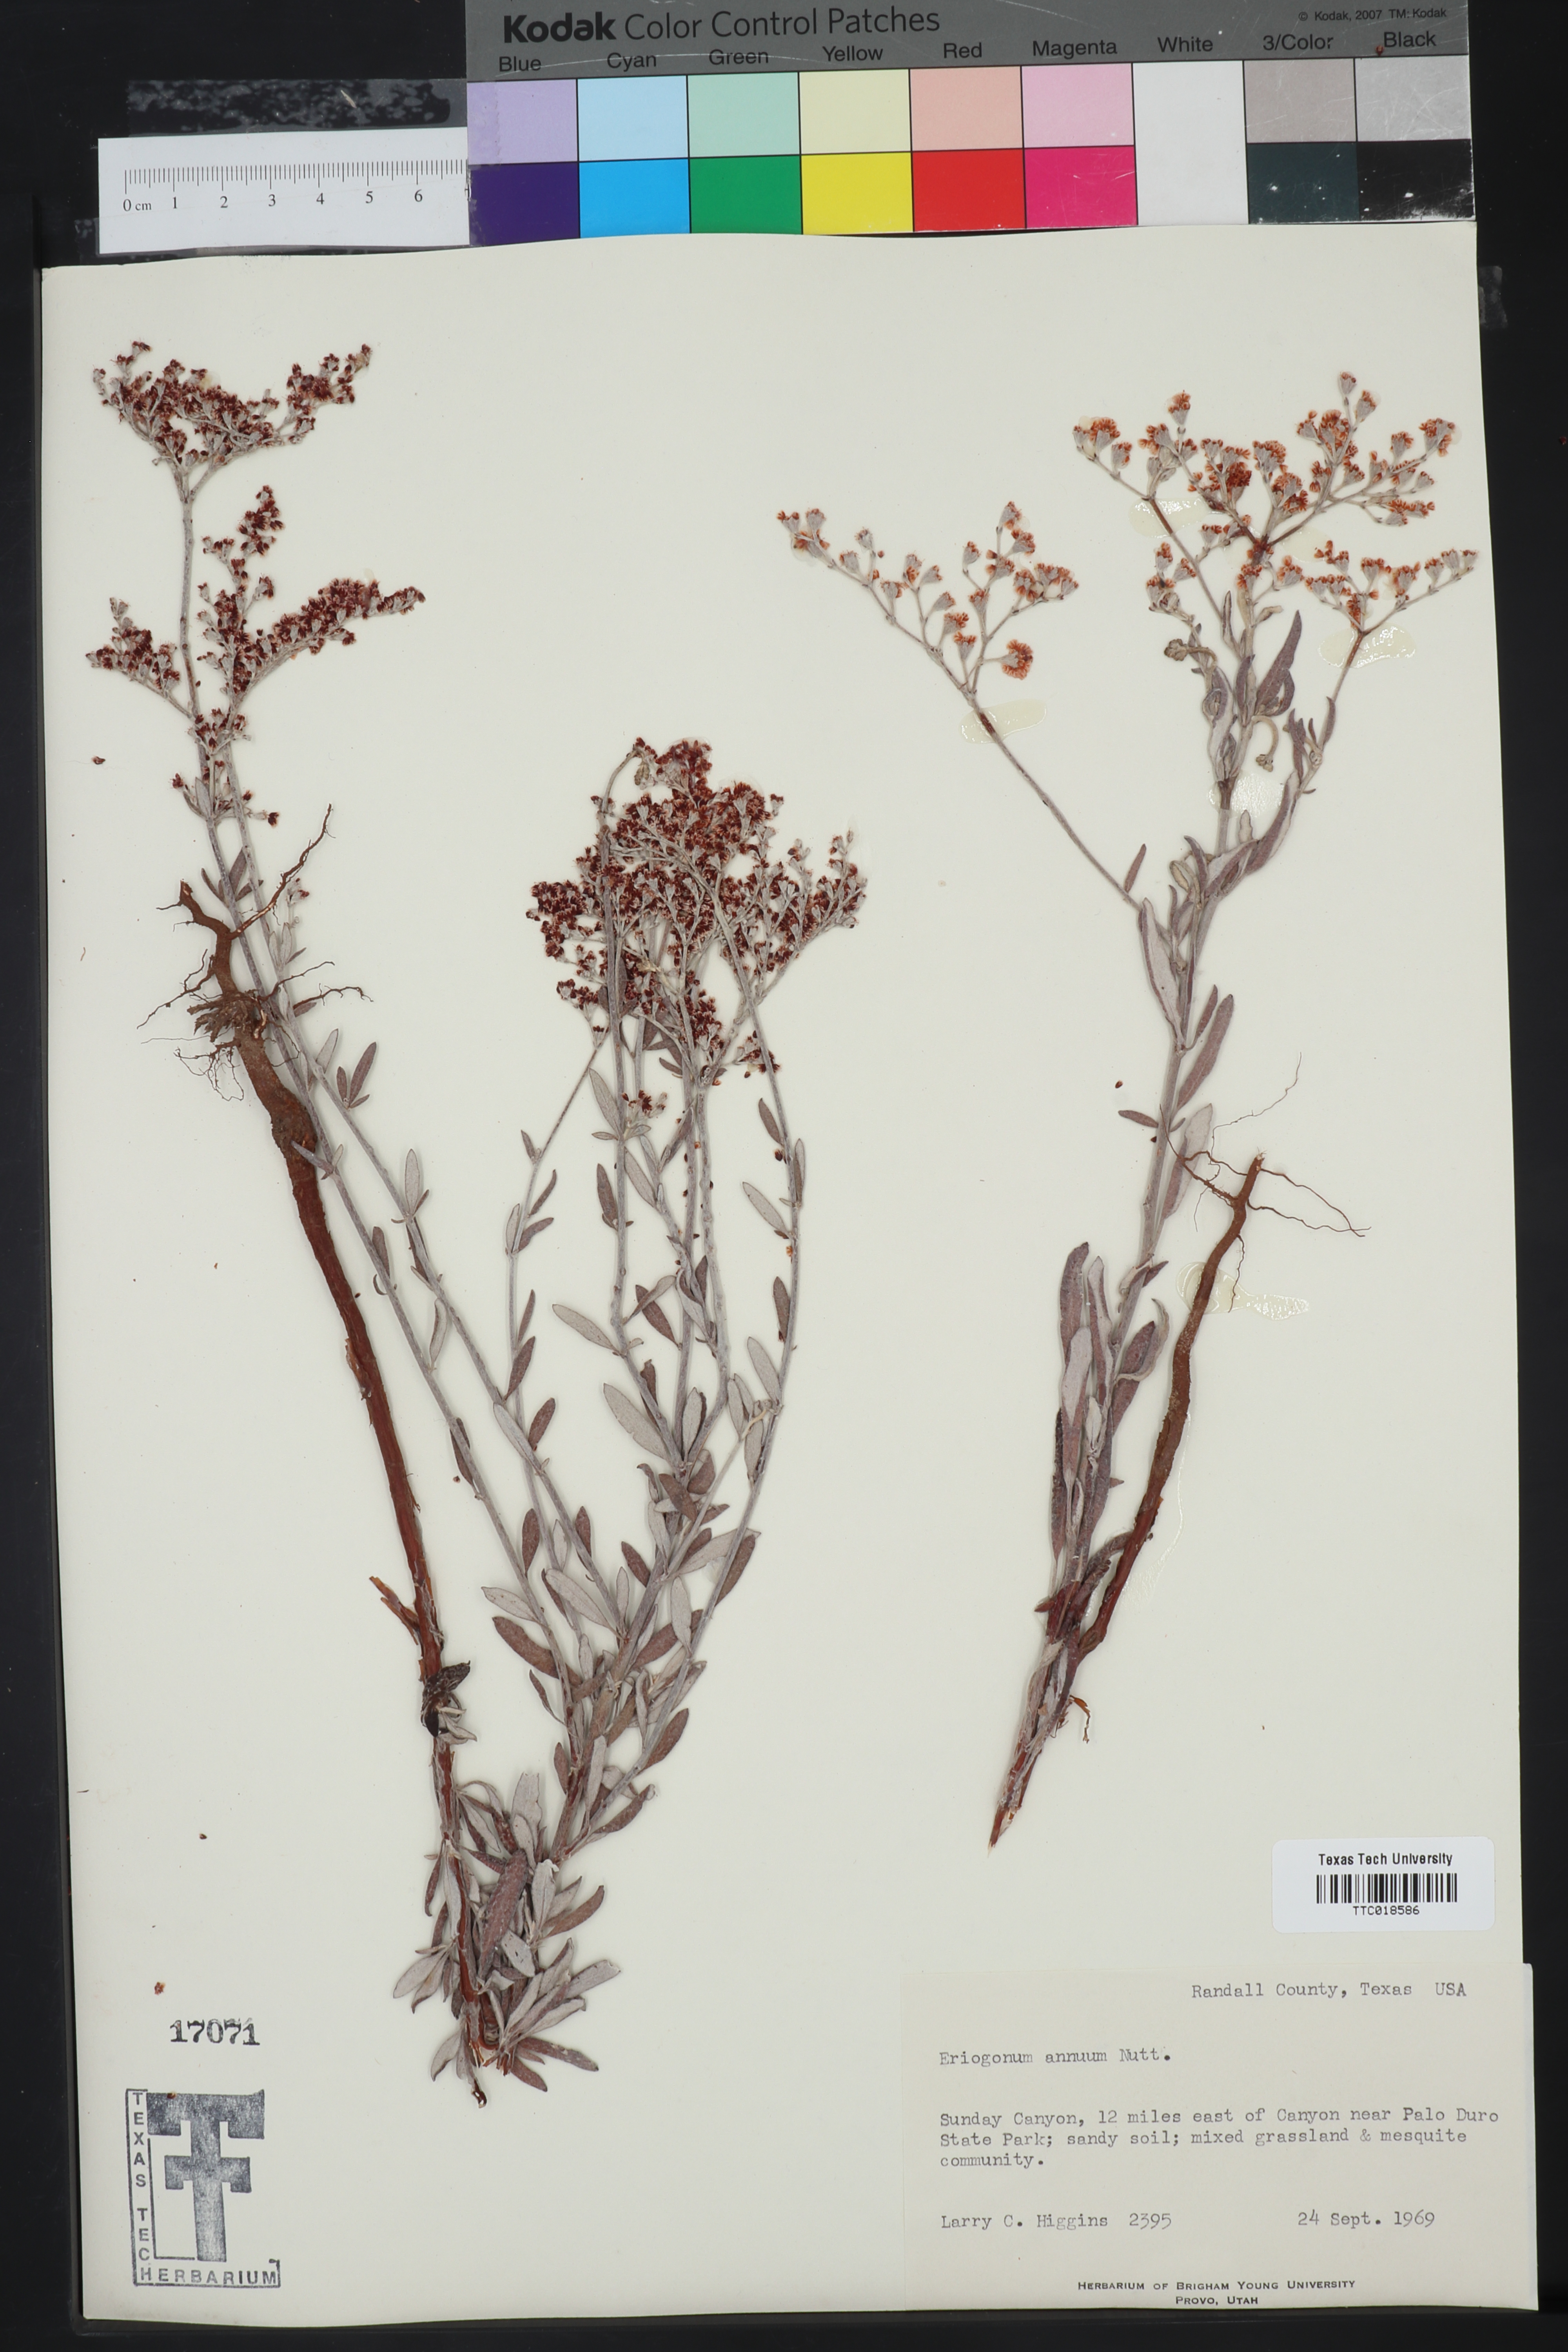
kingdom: Plantae
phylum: Tracheophyta
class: Magnoliopsida
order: Caryophyllales
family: Polygonaceae
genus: Eriogonum
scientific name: Eriogonum annuum
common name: Annual wild buckwheat
